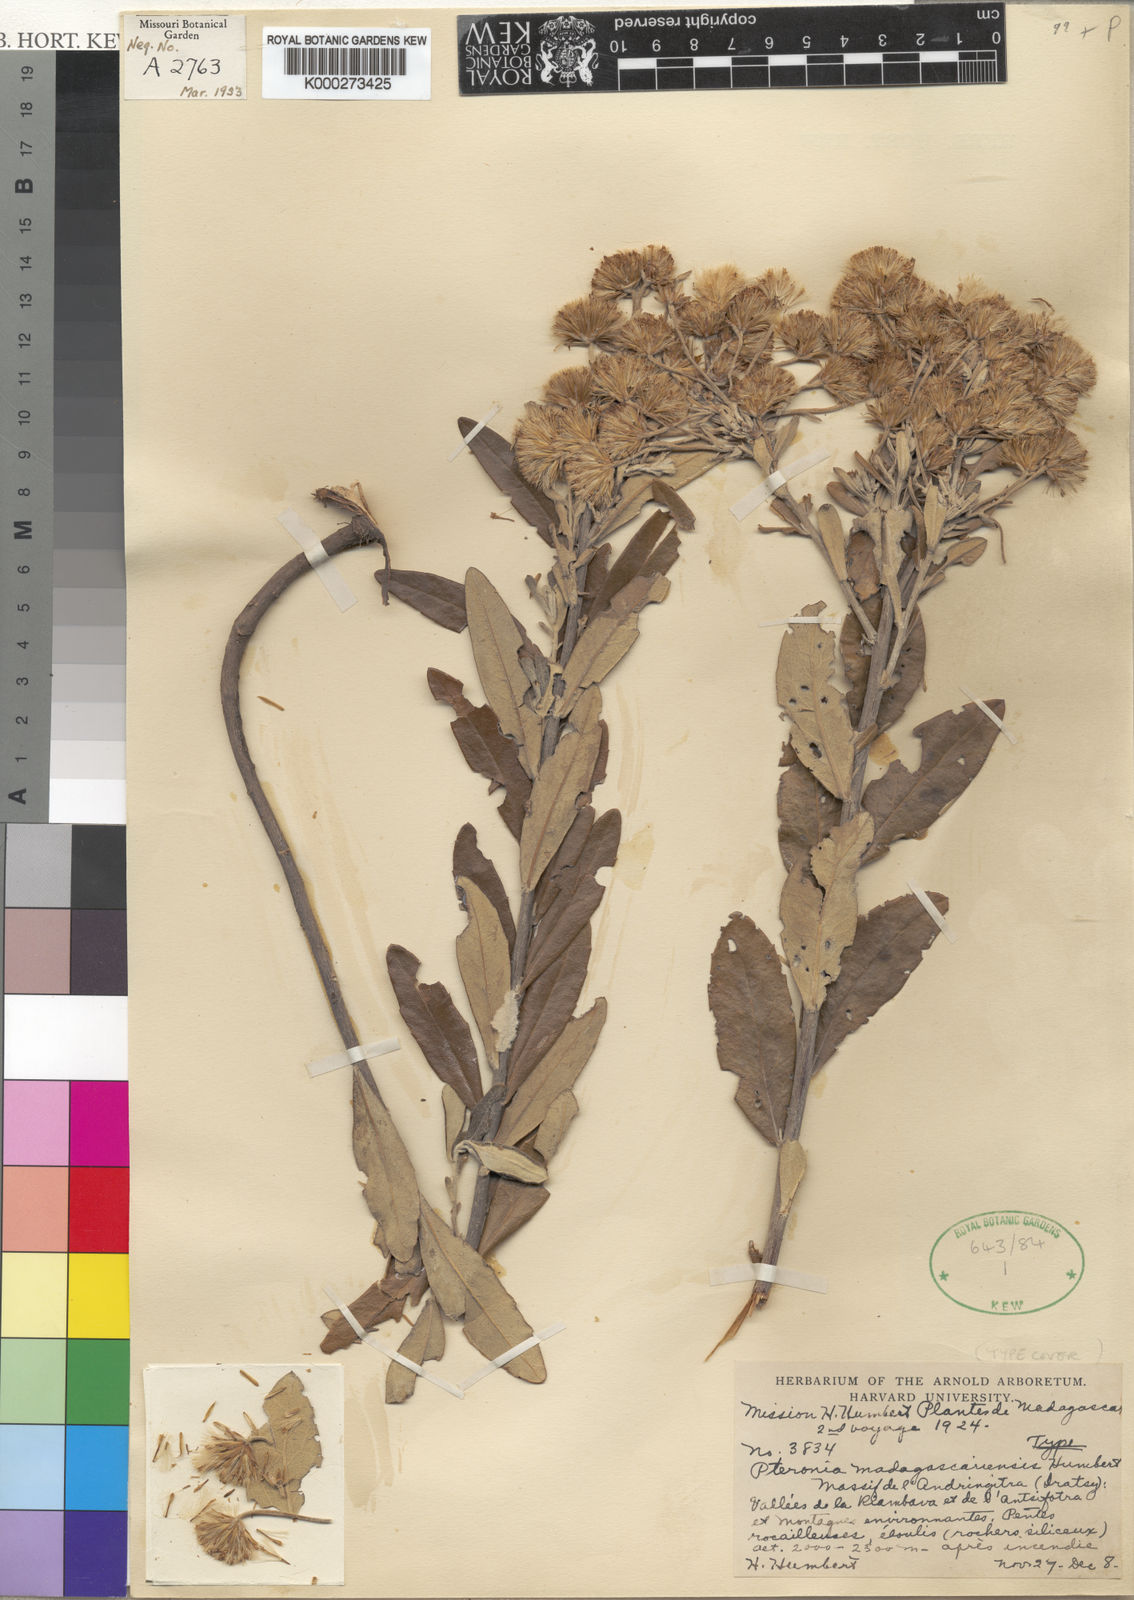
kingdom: Plantae
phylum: Tracheophyta
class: Magnoliopsida
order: Asterales
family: Asteraceae
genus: Pteronia
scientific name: Pteronia madagascariensis
